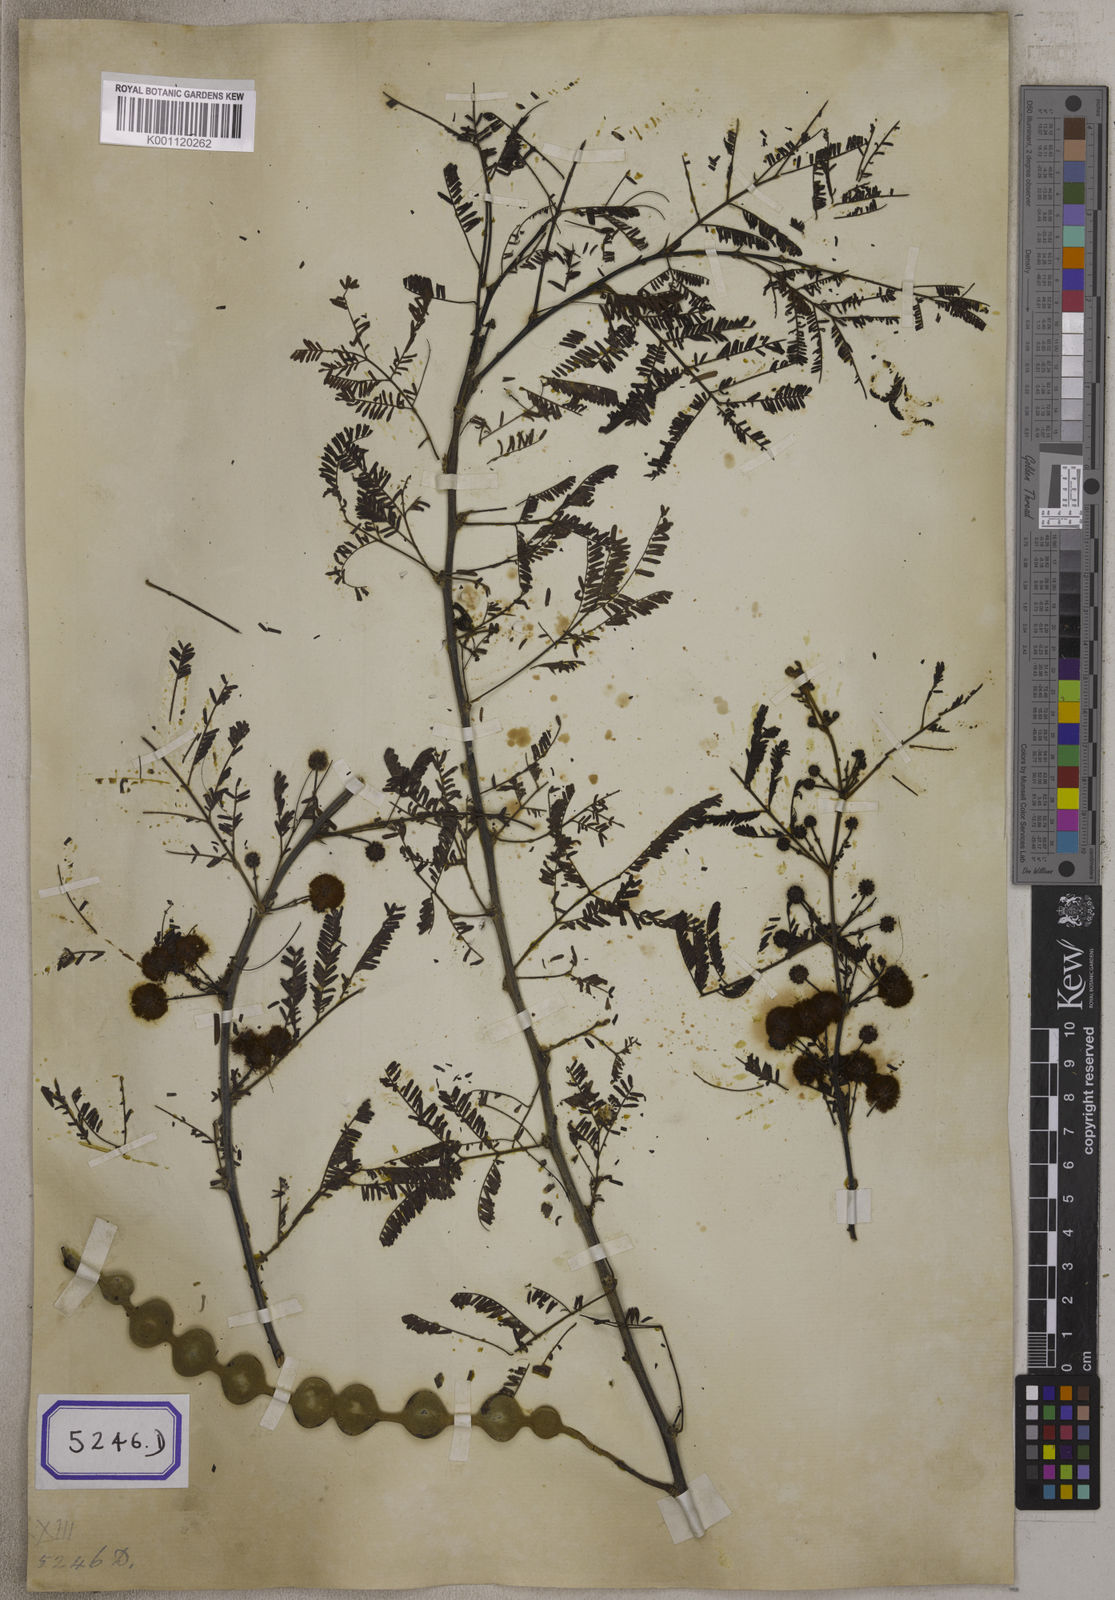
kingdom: Plantae
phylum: Tracheophyta
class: Magnoliopsida
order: Fabales
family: Fabaceae
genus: Vachellia
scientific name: Vachellia nilotica
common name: Arabic gumtree
